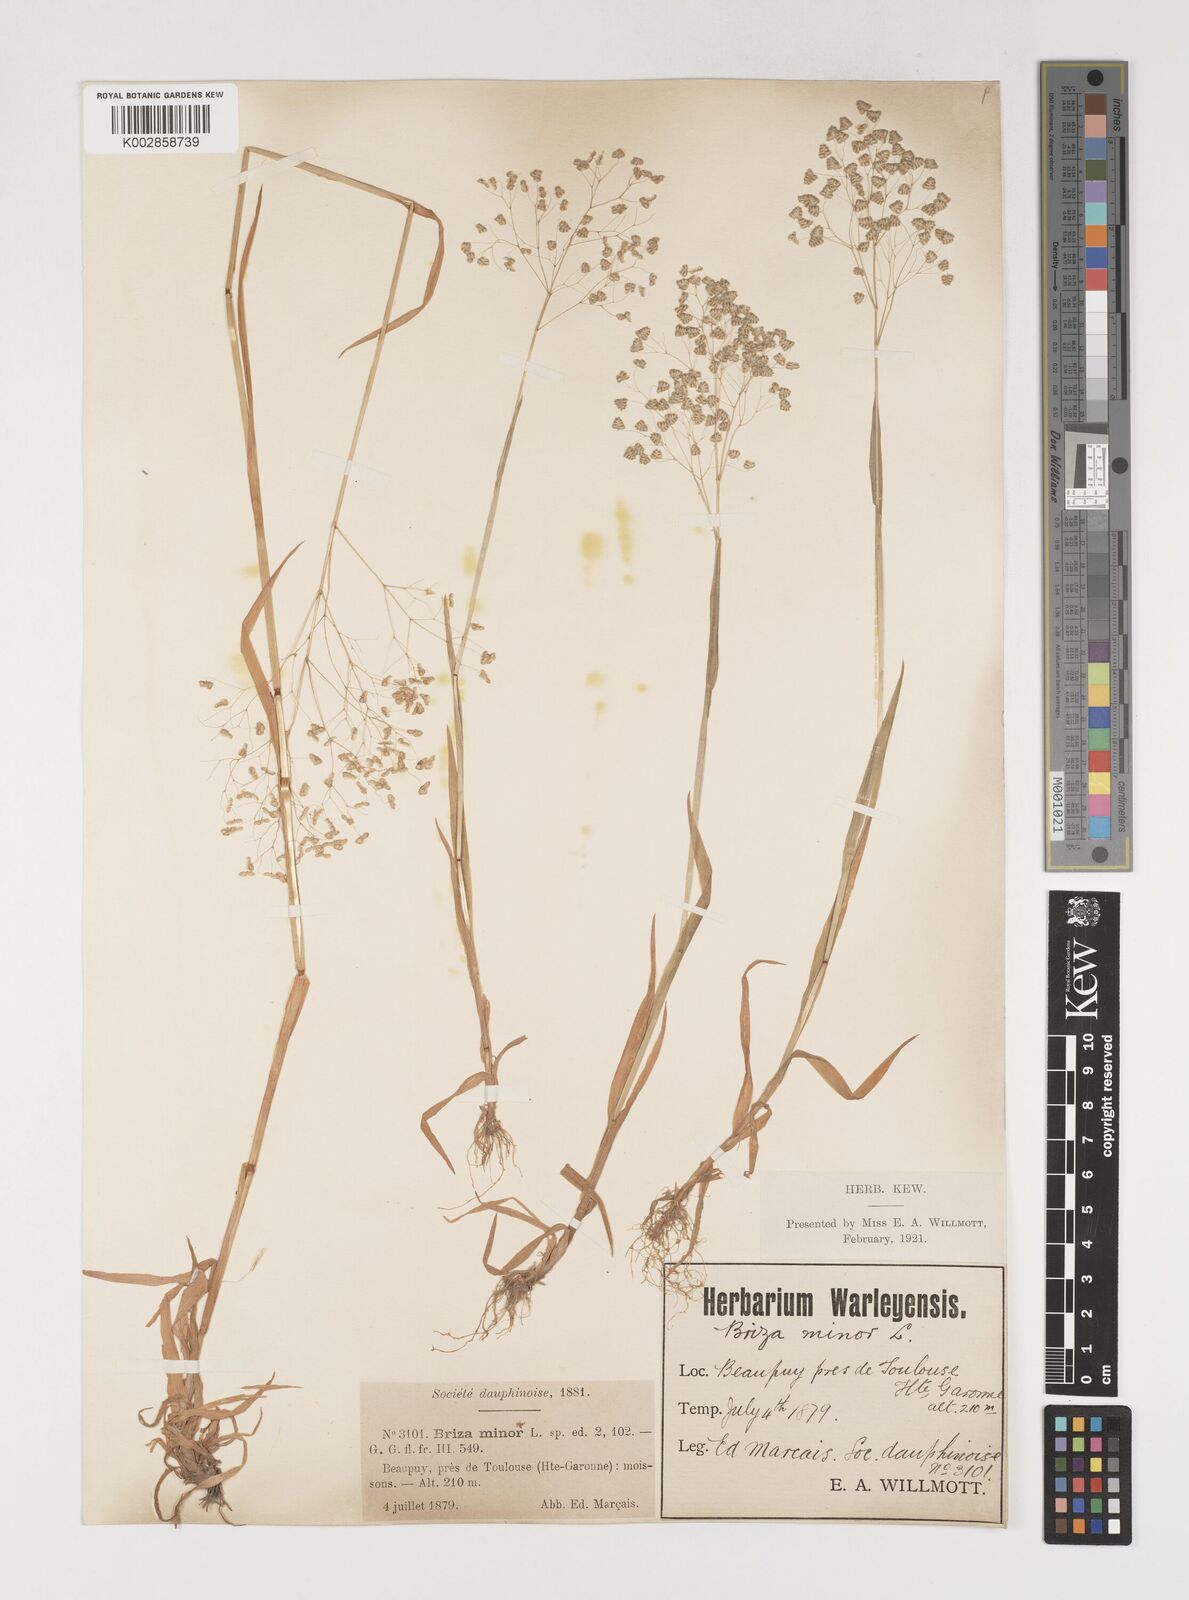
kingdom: Plantae
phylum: Tracheophyta
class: Liliopsida
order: Poales
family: Poaceae
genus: Briza
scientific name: Briza minor
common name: Lesser quaking-grass
